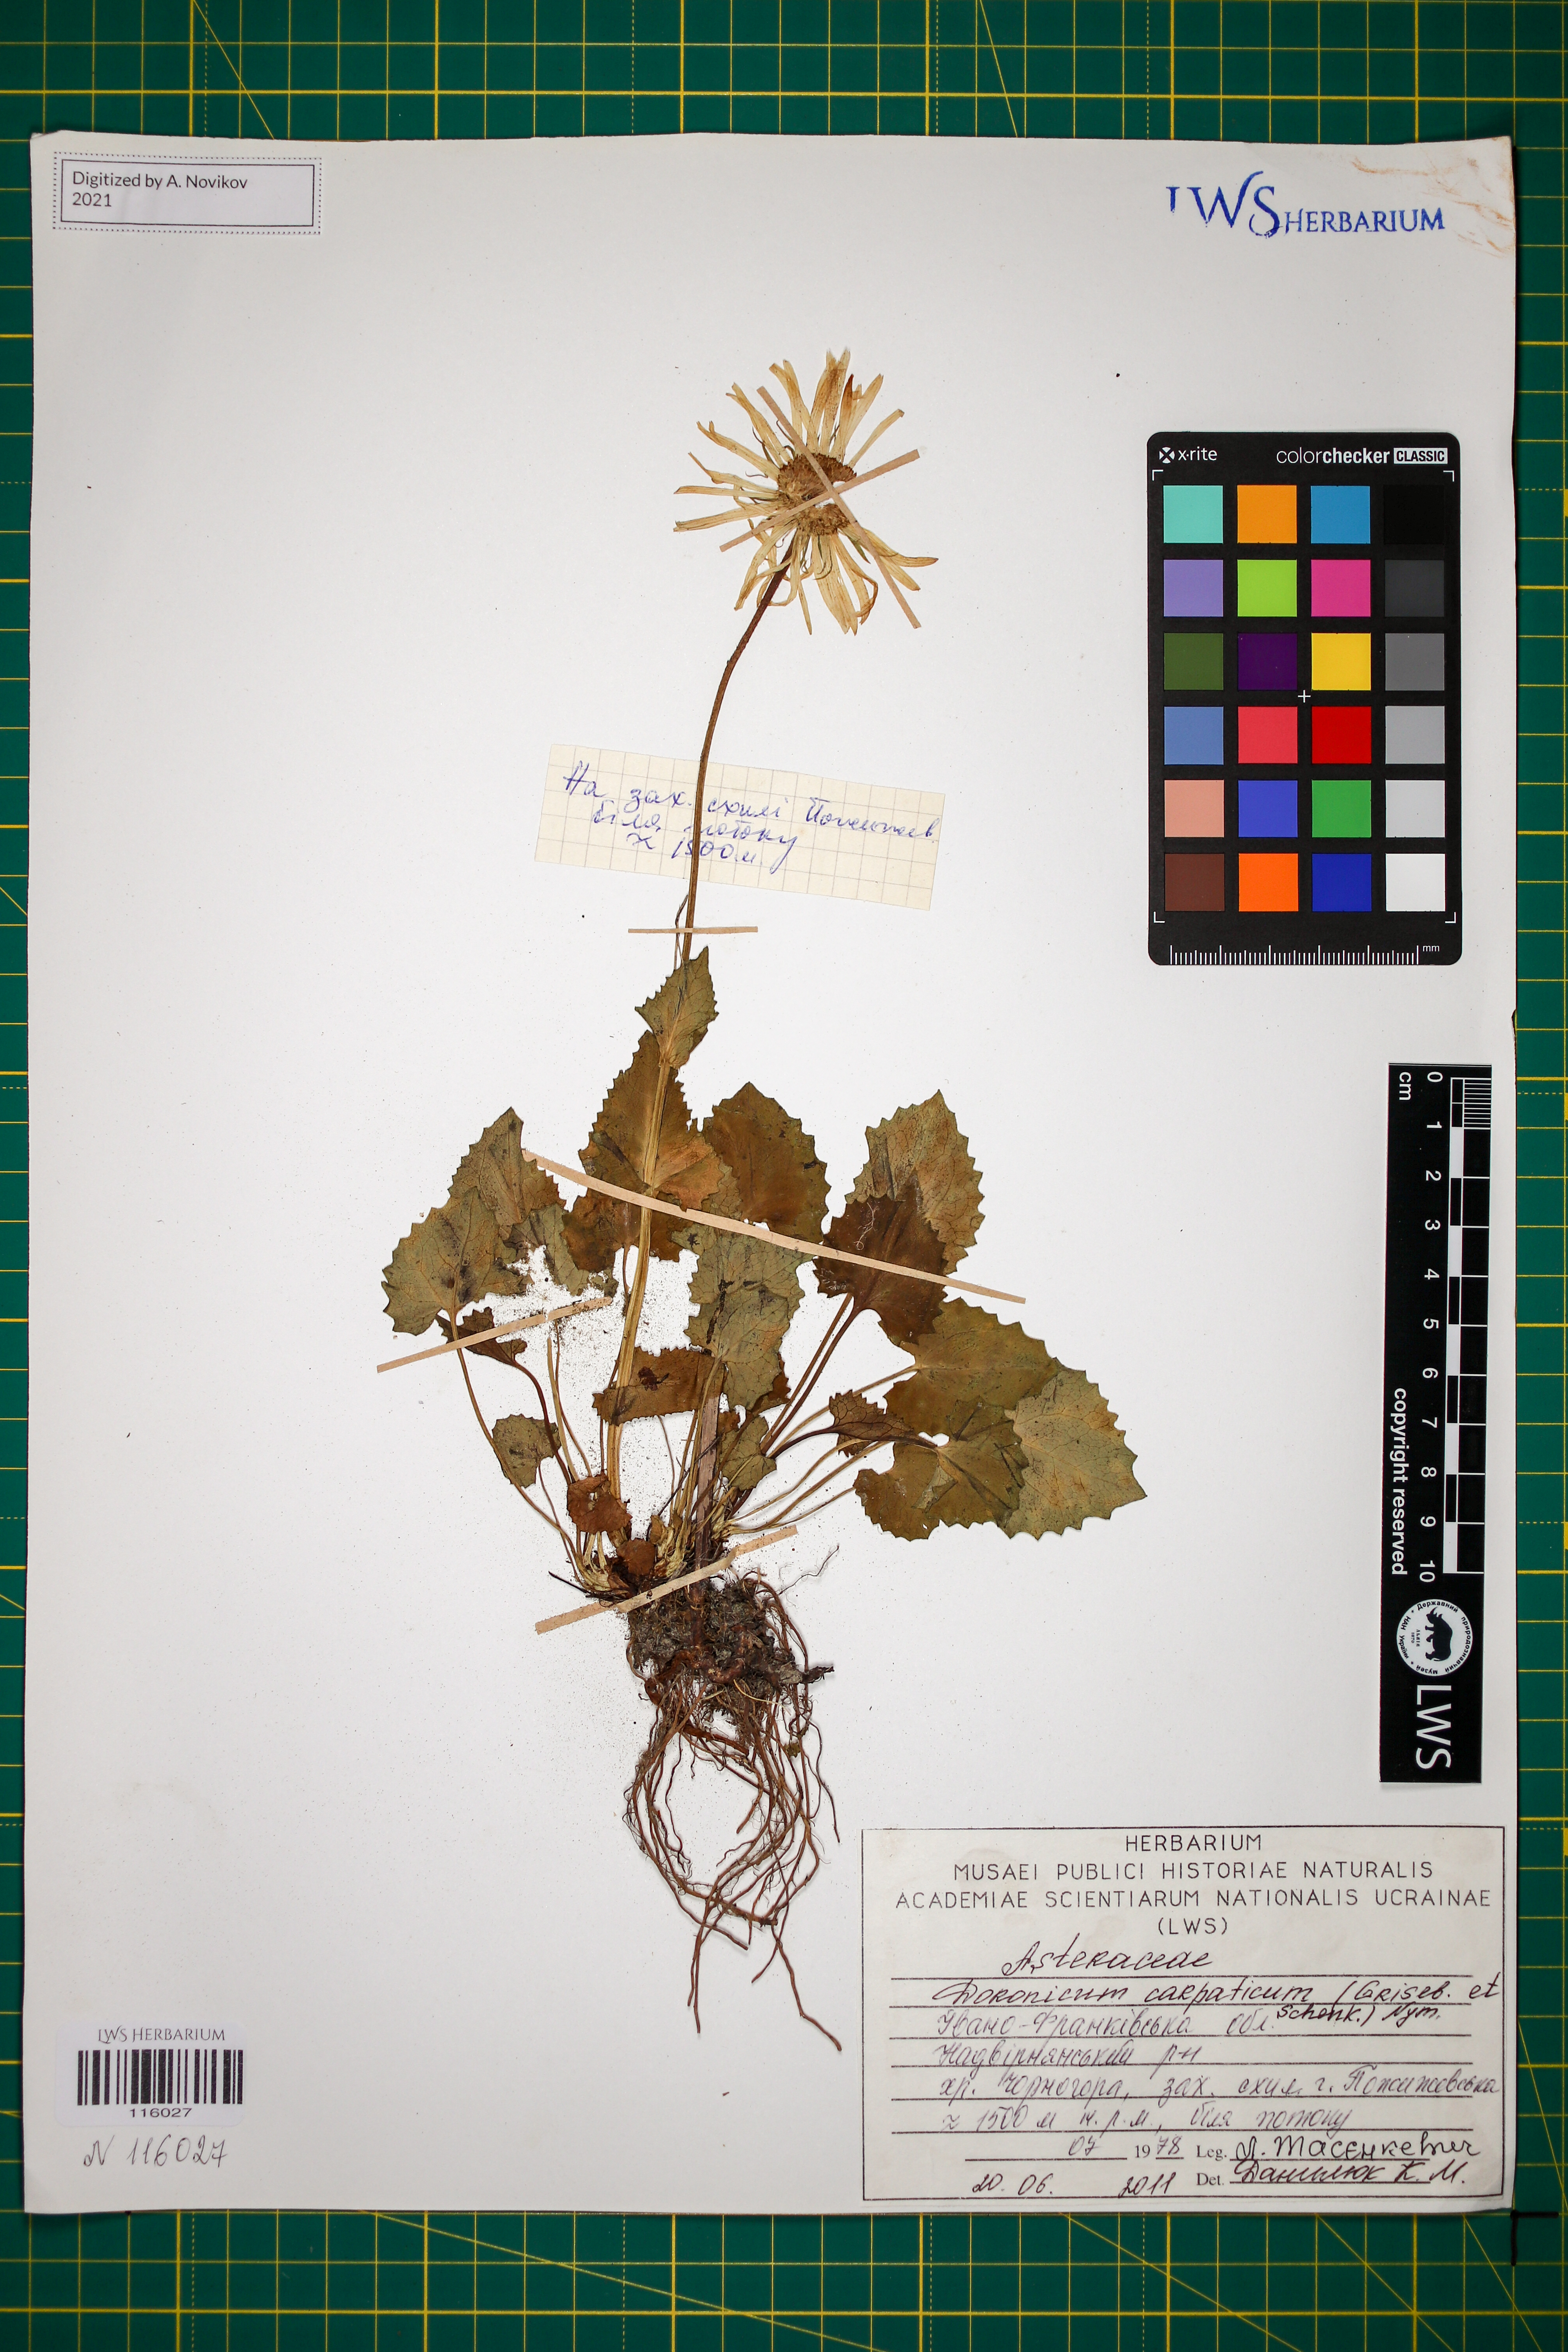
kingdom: Plantae
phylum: Tracheophyta
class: Magnoliopsida
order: Asterales
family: Asteraceae
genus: Doronicum
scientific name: Doronicum carpaticum
